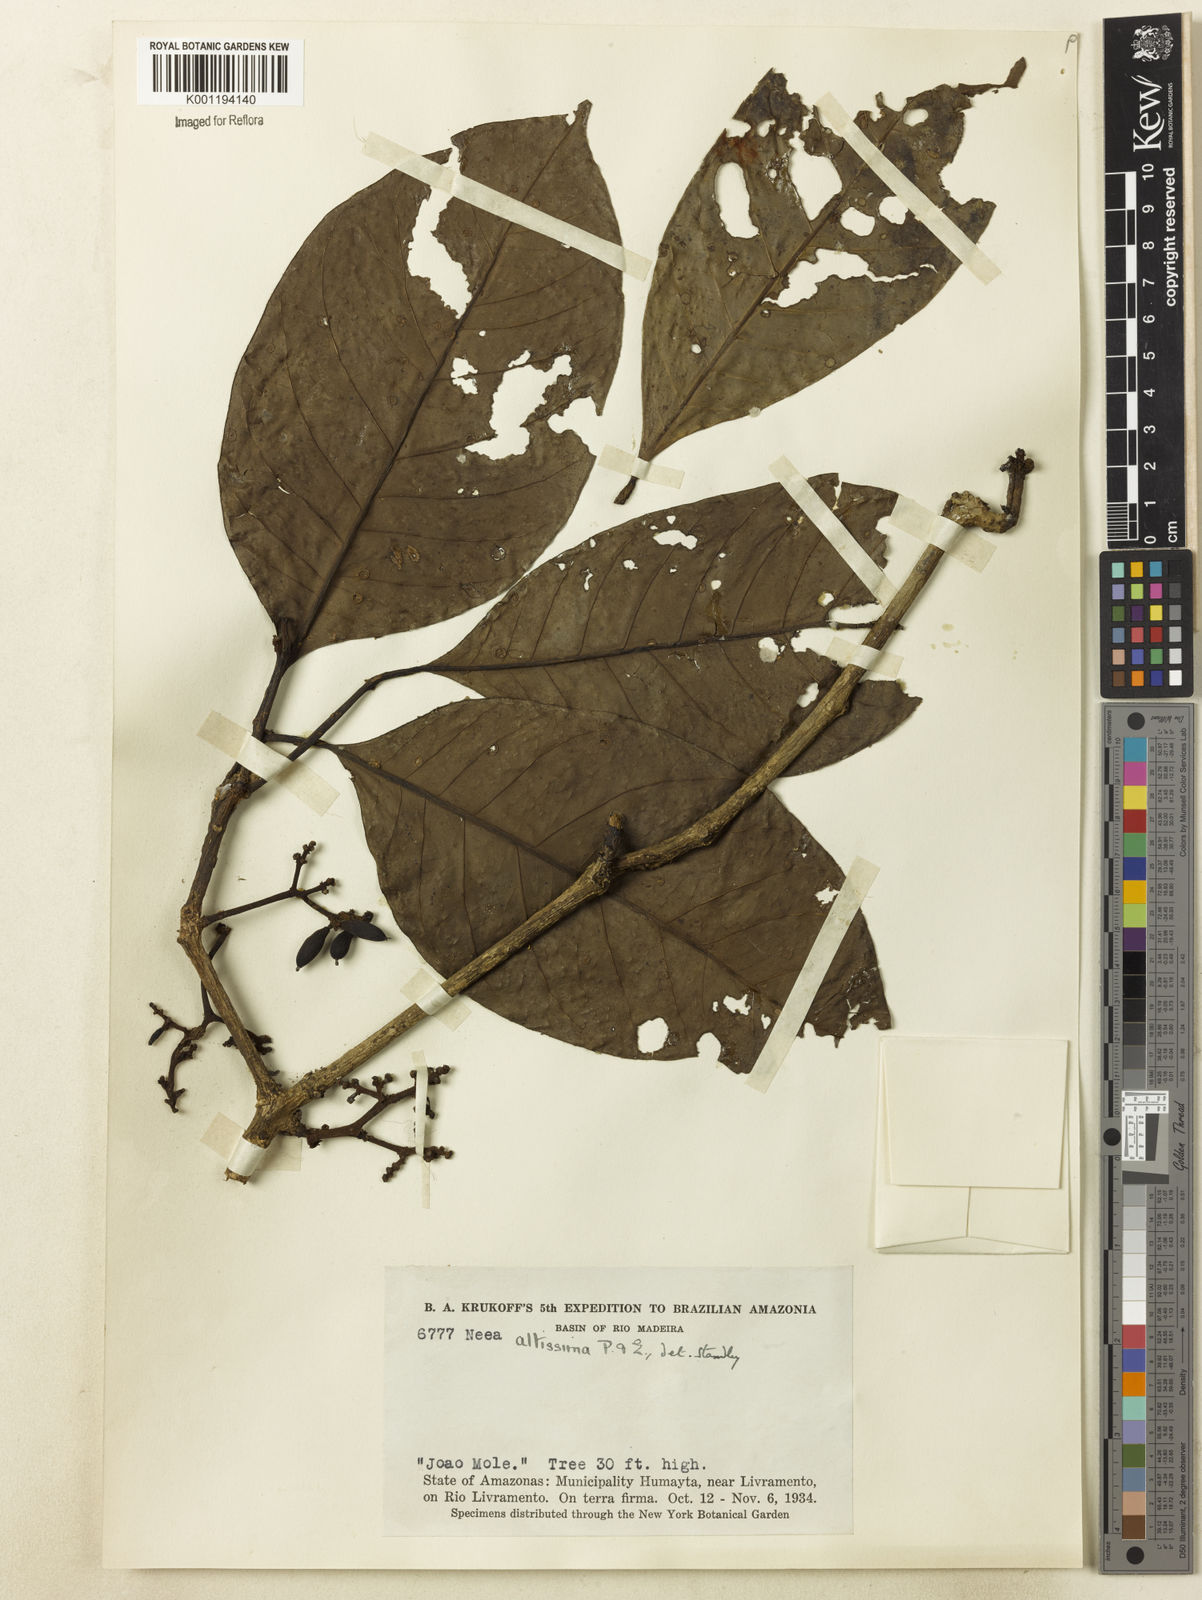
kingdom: Plantae
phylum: Tracheophyta
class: Magnoliopsida
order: Caryophyllales
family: Nyctaginaceae
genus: Neea
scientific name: Neea altissima
